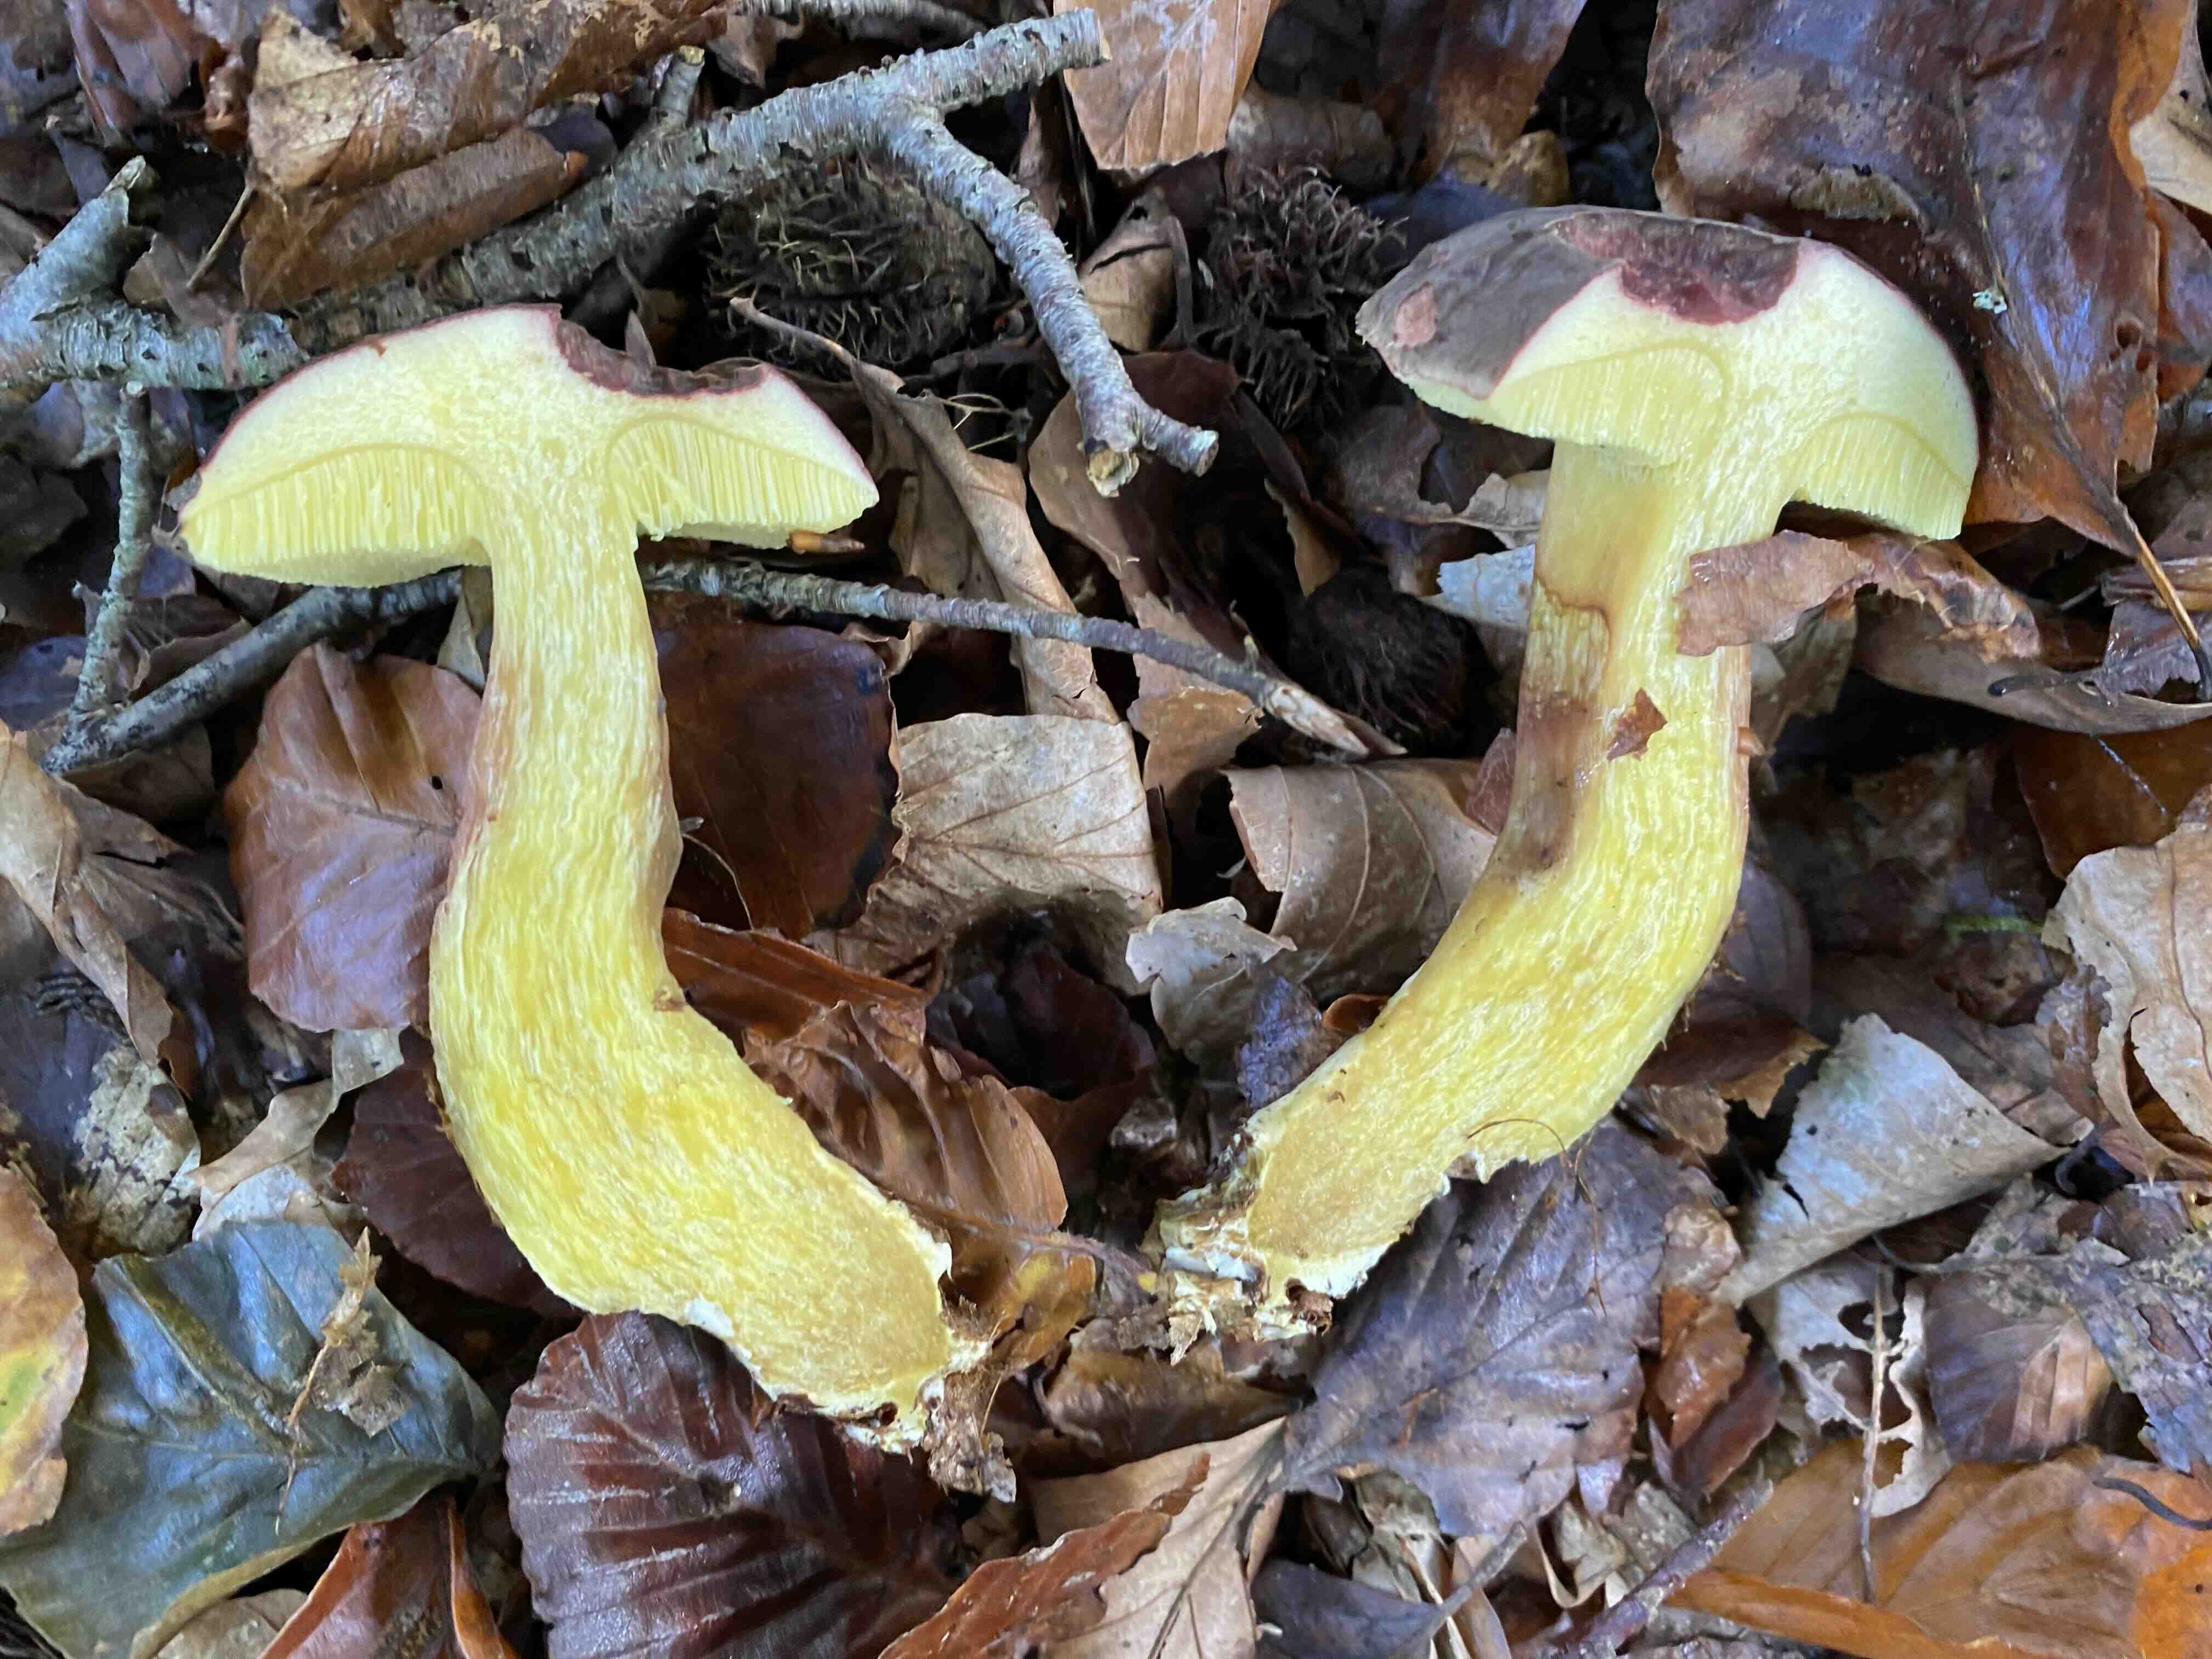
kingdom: Fungi
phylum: Basidiomycota
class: Agaricomycetes
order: Boletales
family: Boletaceae
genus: Xerocomellus
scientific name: Xerocomellus pruinatus
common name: dugget rørhat
